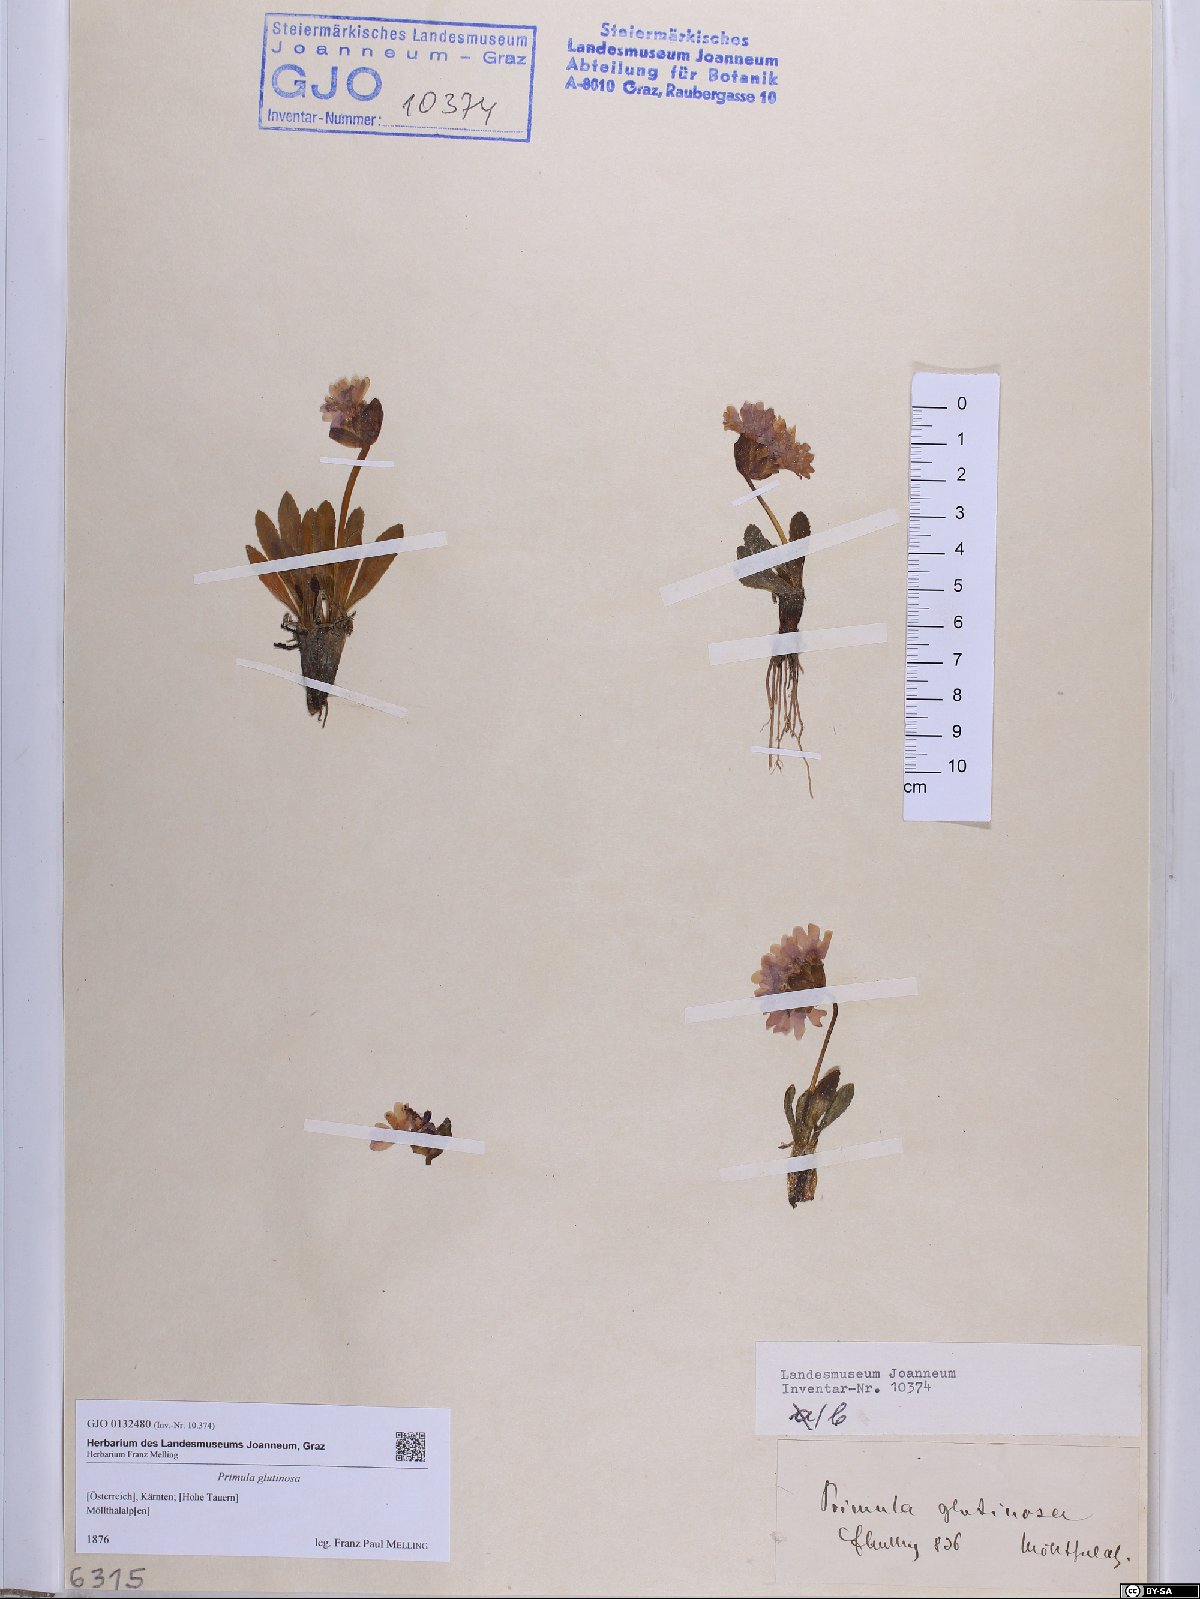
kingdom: Plantae
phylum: Tracheophyta
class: Magnoliopsida
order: Ericales
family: Primulaceae
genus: Primula
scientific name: Primula glutinosa
